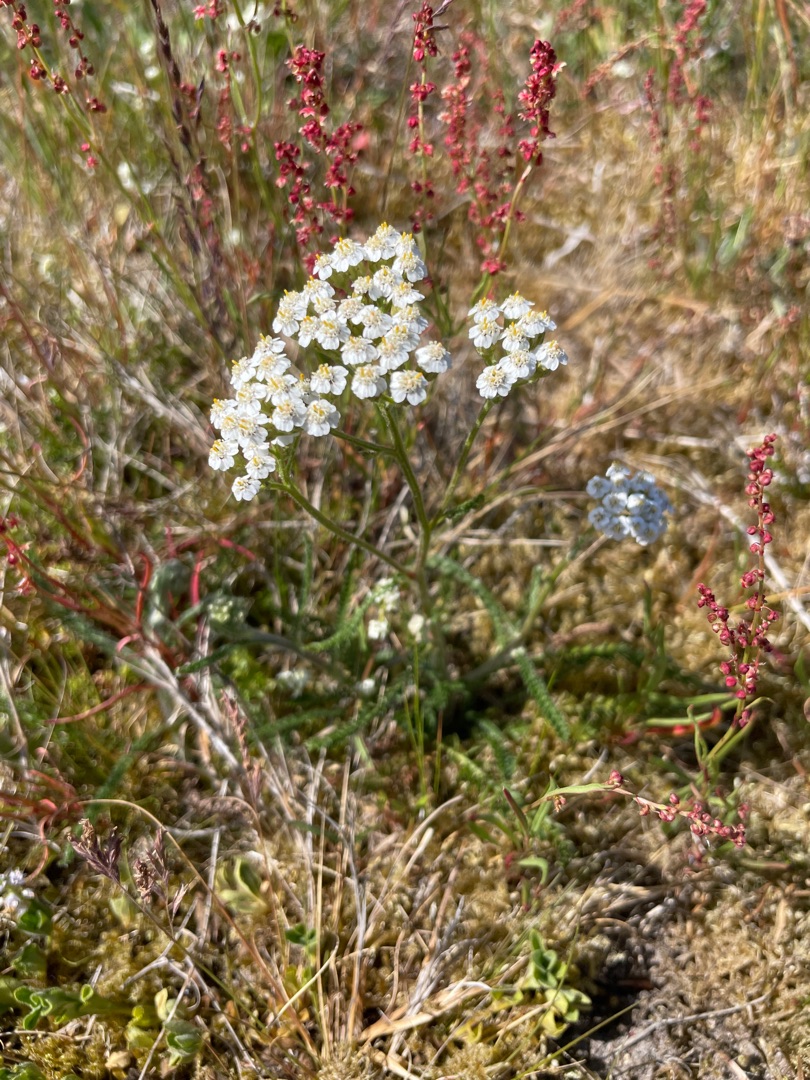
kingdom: Plantae
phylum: Tracheophyta
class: Magnoliopsida
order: Asterales
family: Asteraceae
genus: Achillea
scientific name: Achillea millefolium
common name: Almindelig røllike
